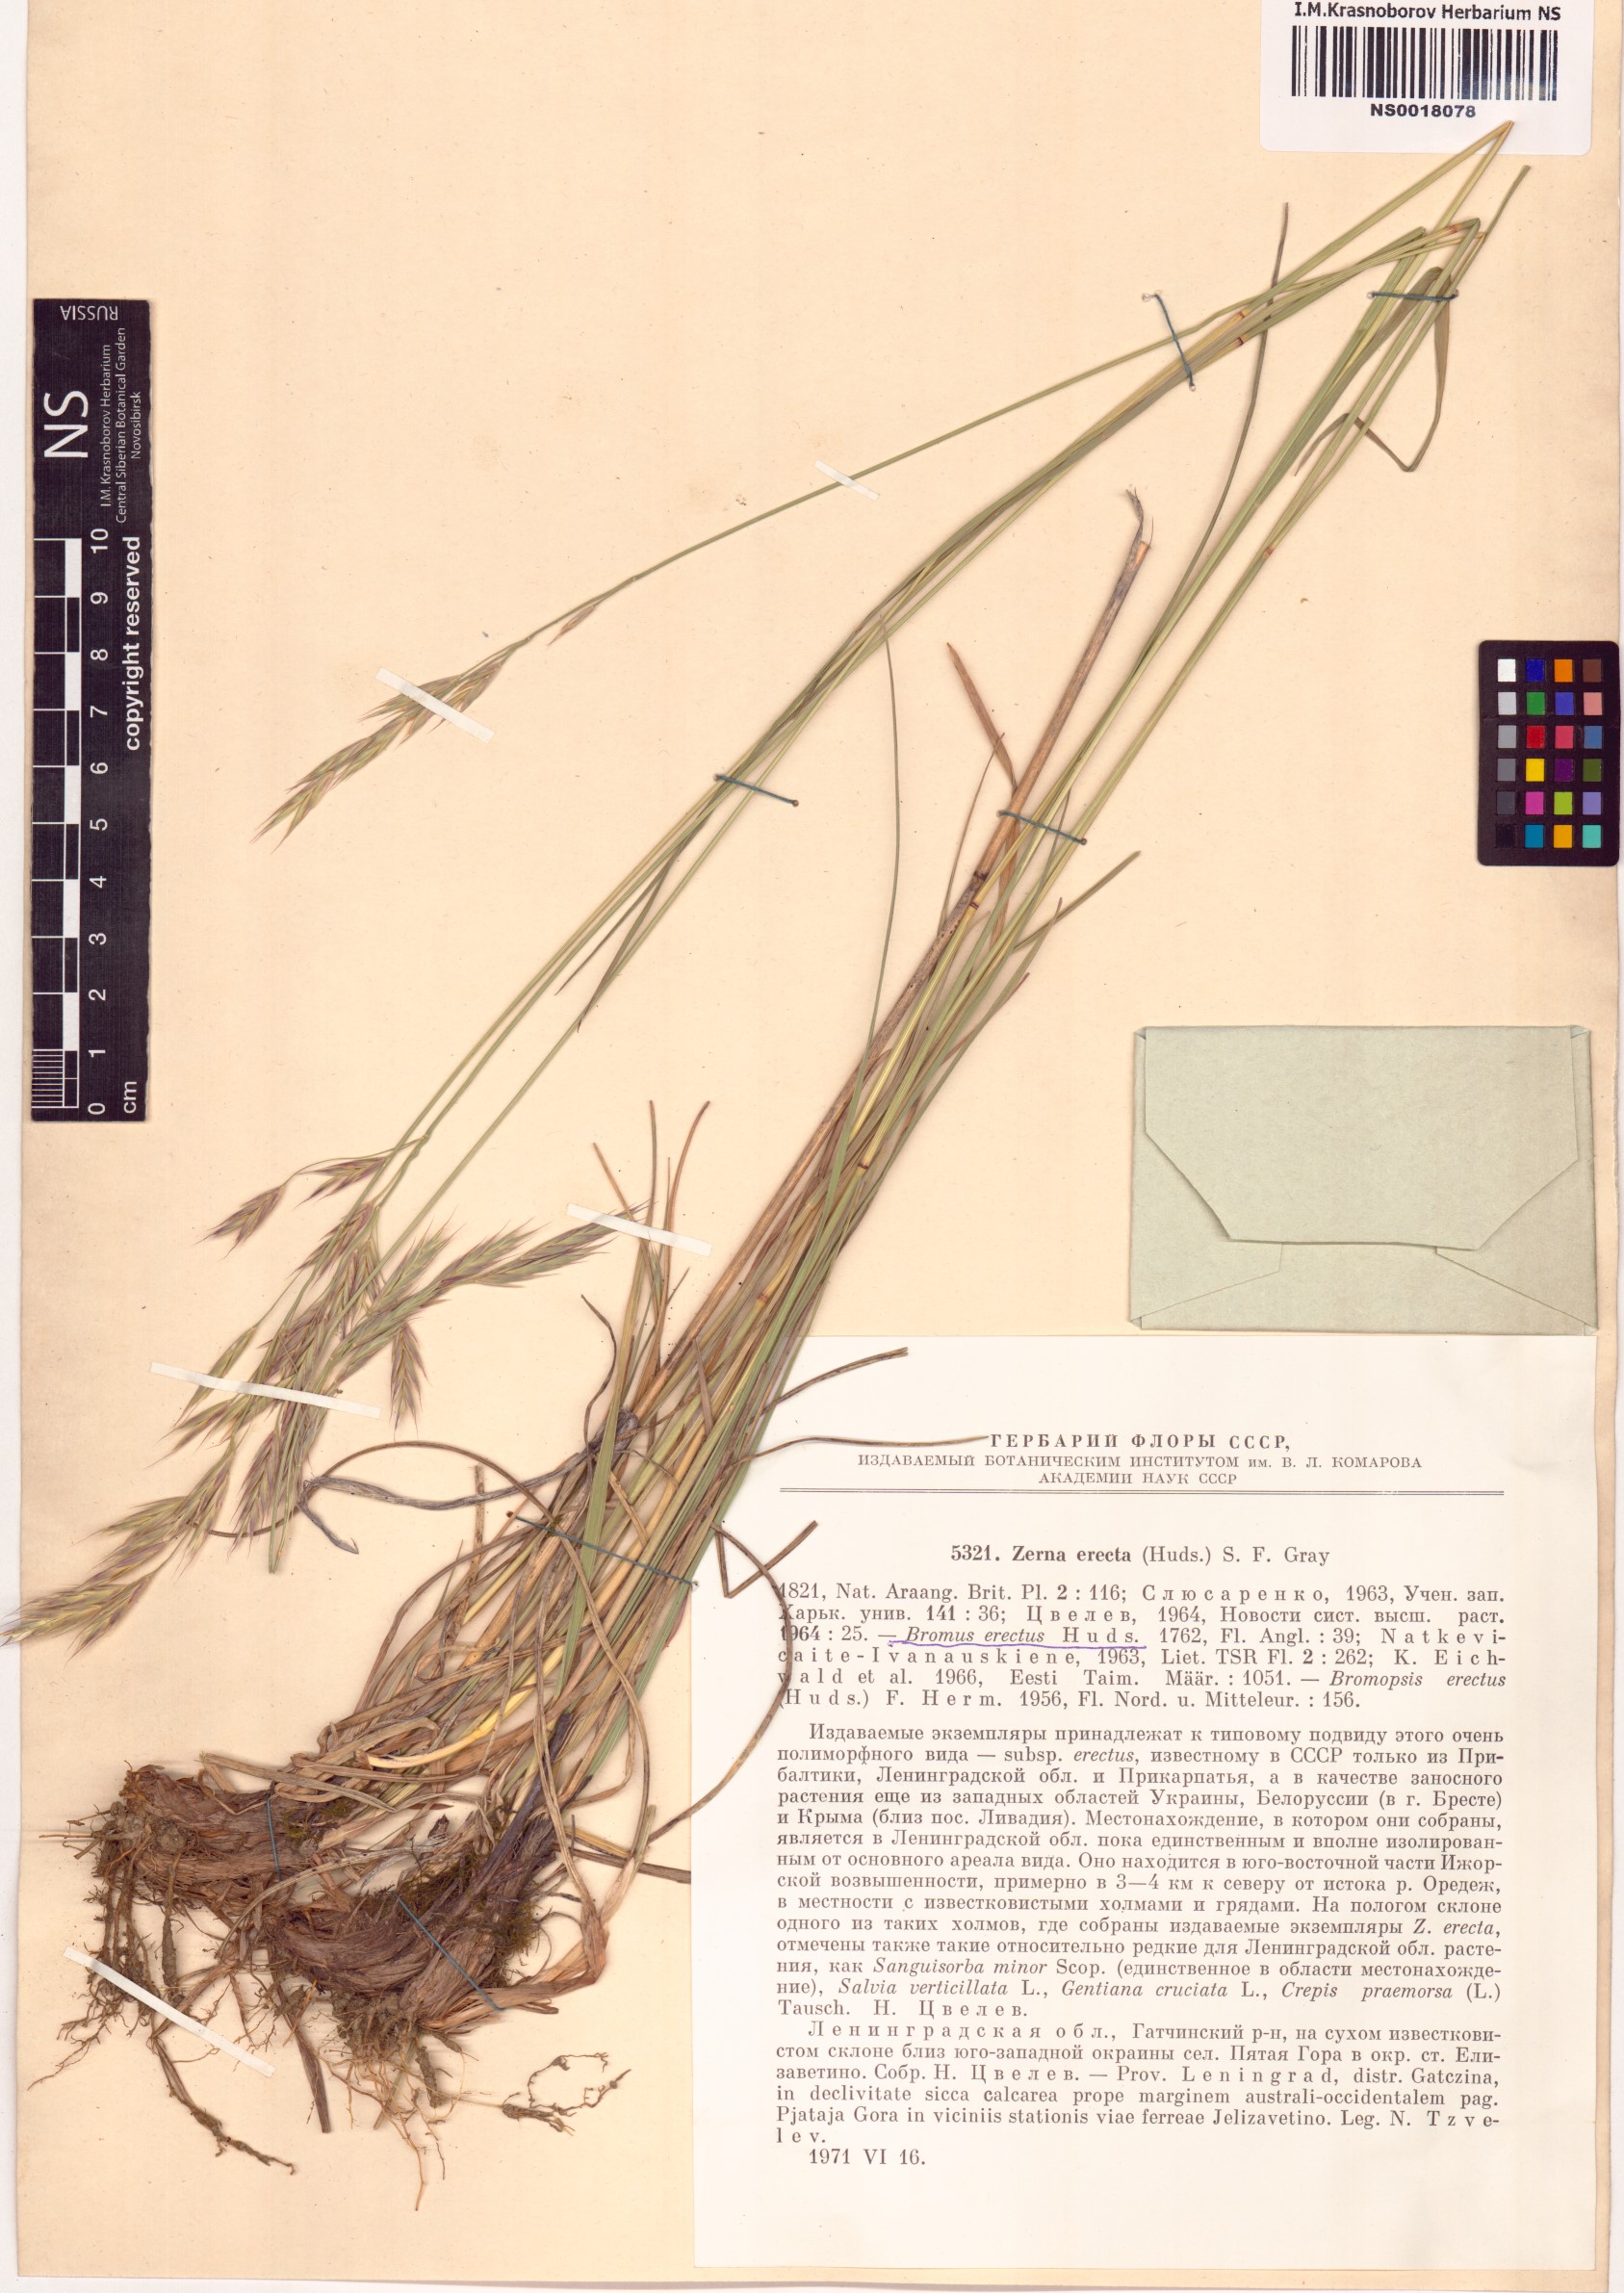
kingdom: Plantae
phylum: Tracheophyta
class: Liliopsida
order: Poales
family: Poaceae
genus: Bromus
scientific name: Bromus erectus
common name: Erect brome
